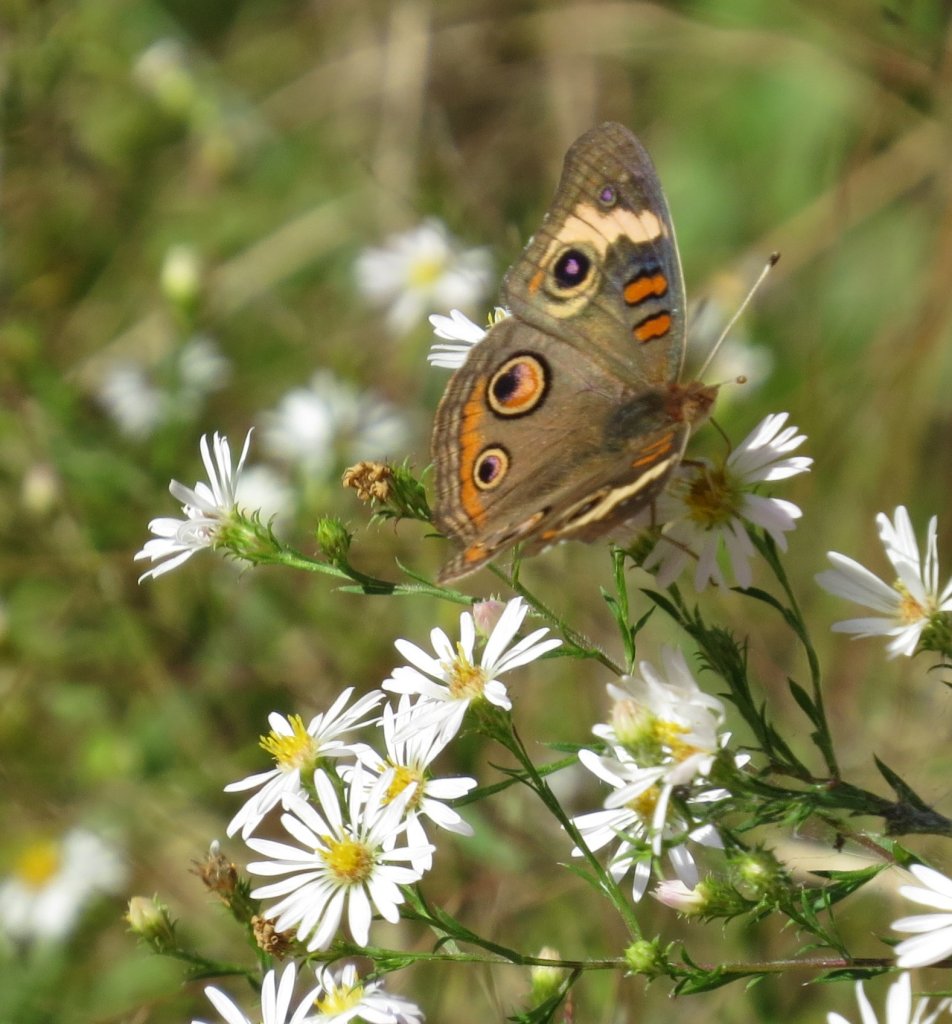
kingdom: Animalia
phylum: Arthropoda
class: Insecta
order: Lepidoptera
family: Nymphalidae
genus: Junonia
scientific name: Junonia coenia
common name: Common Buckeye
